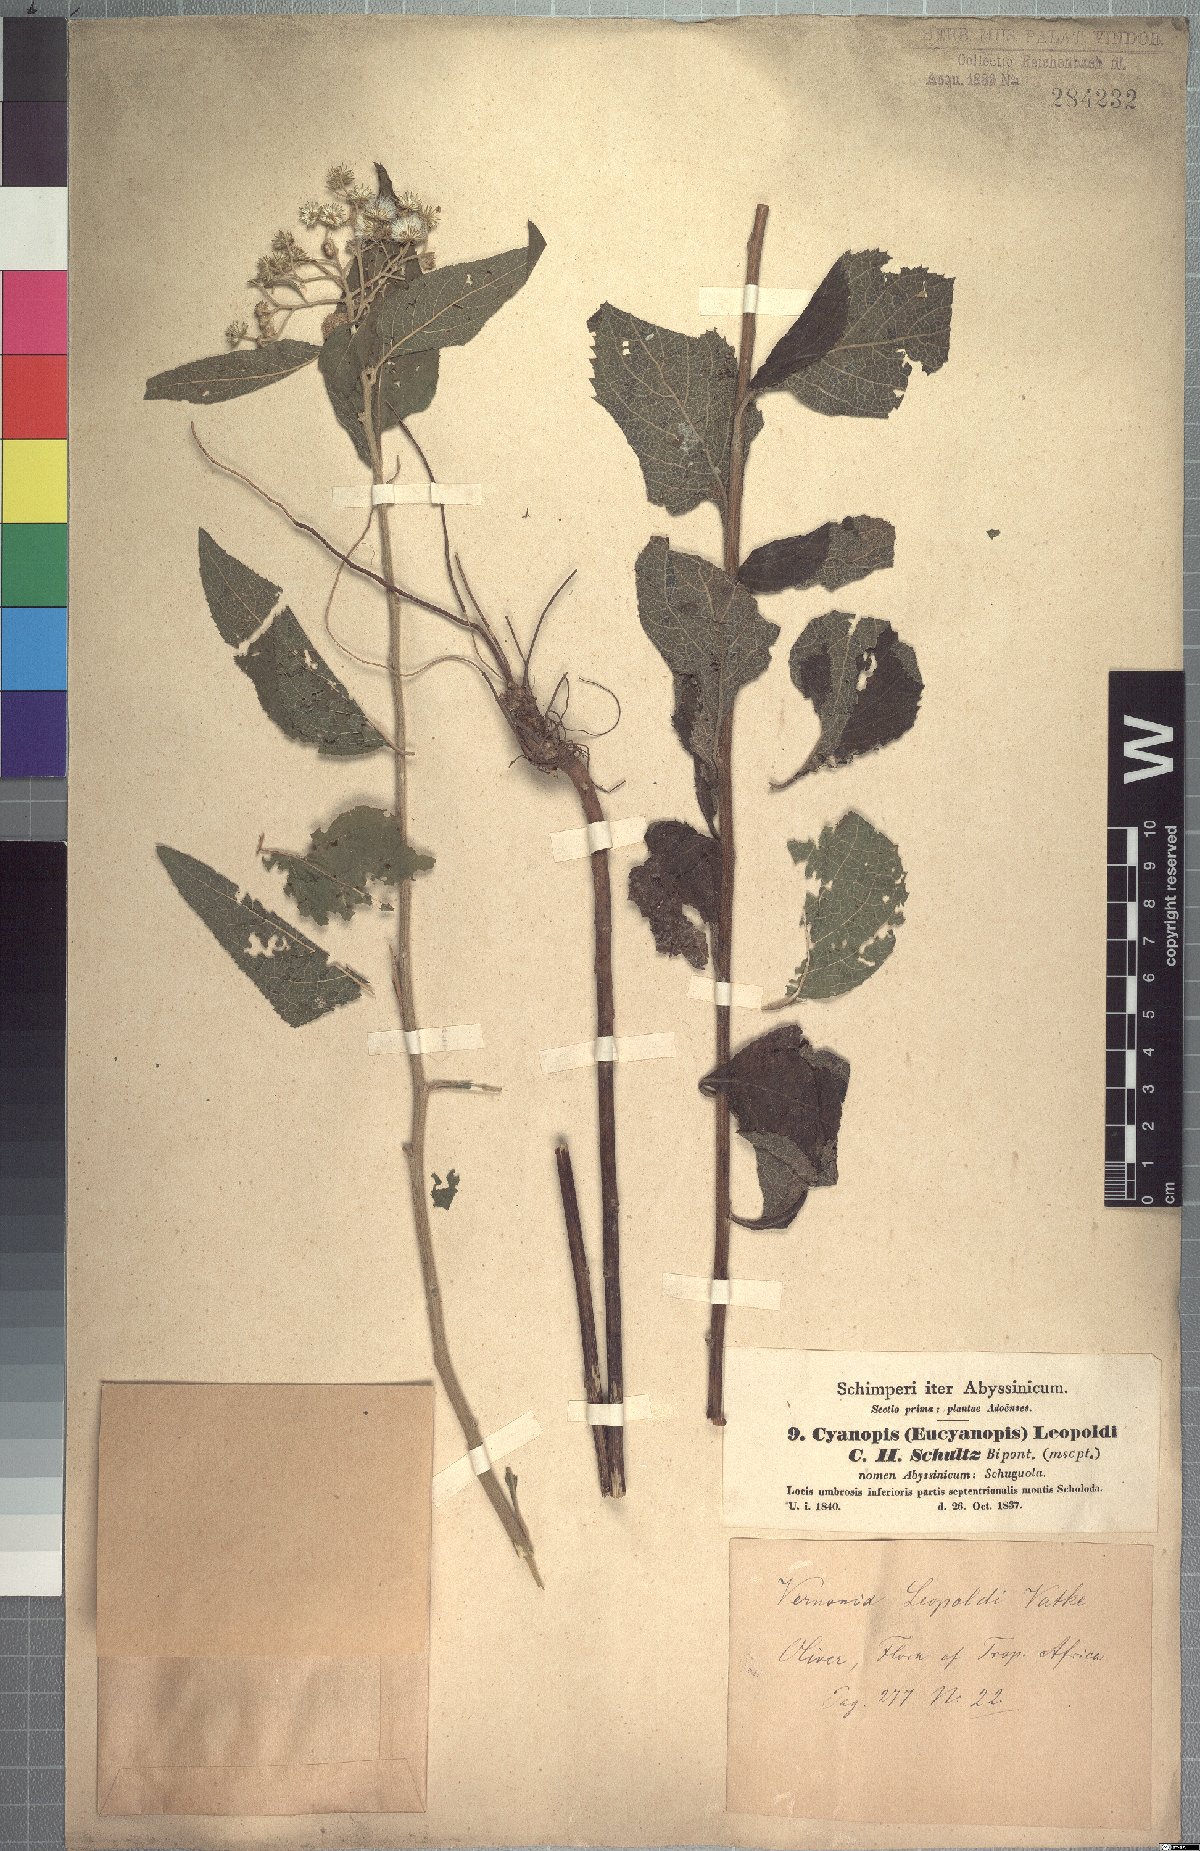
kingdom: Plantae
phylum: Tracheophyta
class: Magnoliopsida
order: Asterales
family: Asteraceae
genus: Orbivestus
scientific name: Orbivestus leopoldii
